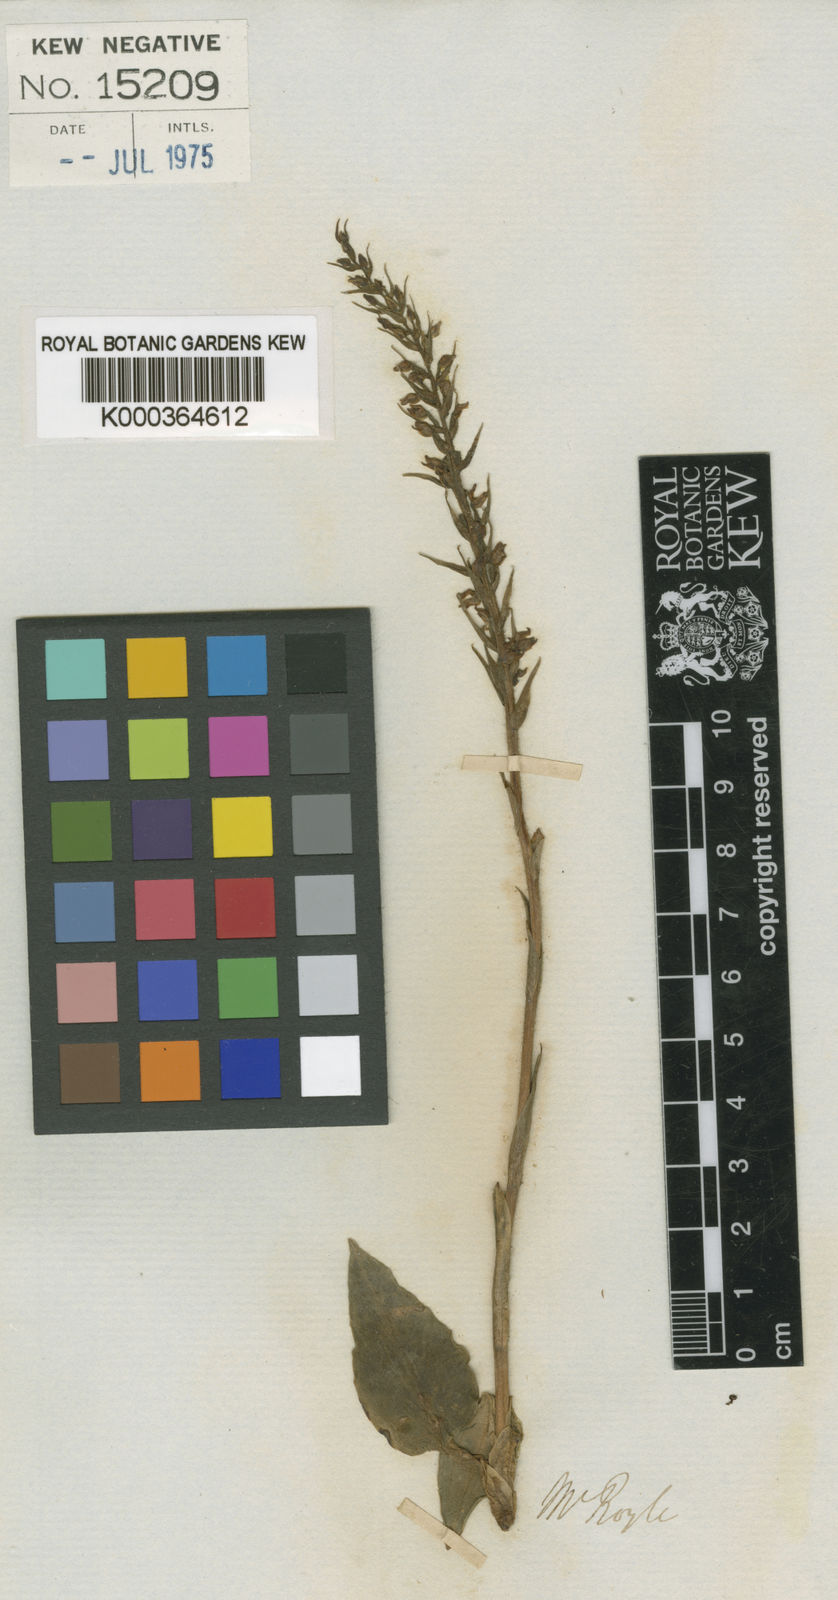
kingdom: Plantae
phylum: Tracheophyta
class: Liliopsida
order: Asparagales
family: Orchidaceae
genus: Goodyera
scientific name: Goodyera marginata
